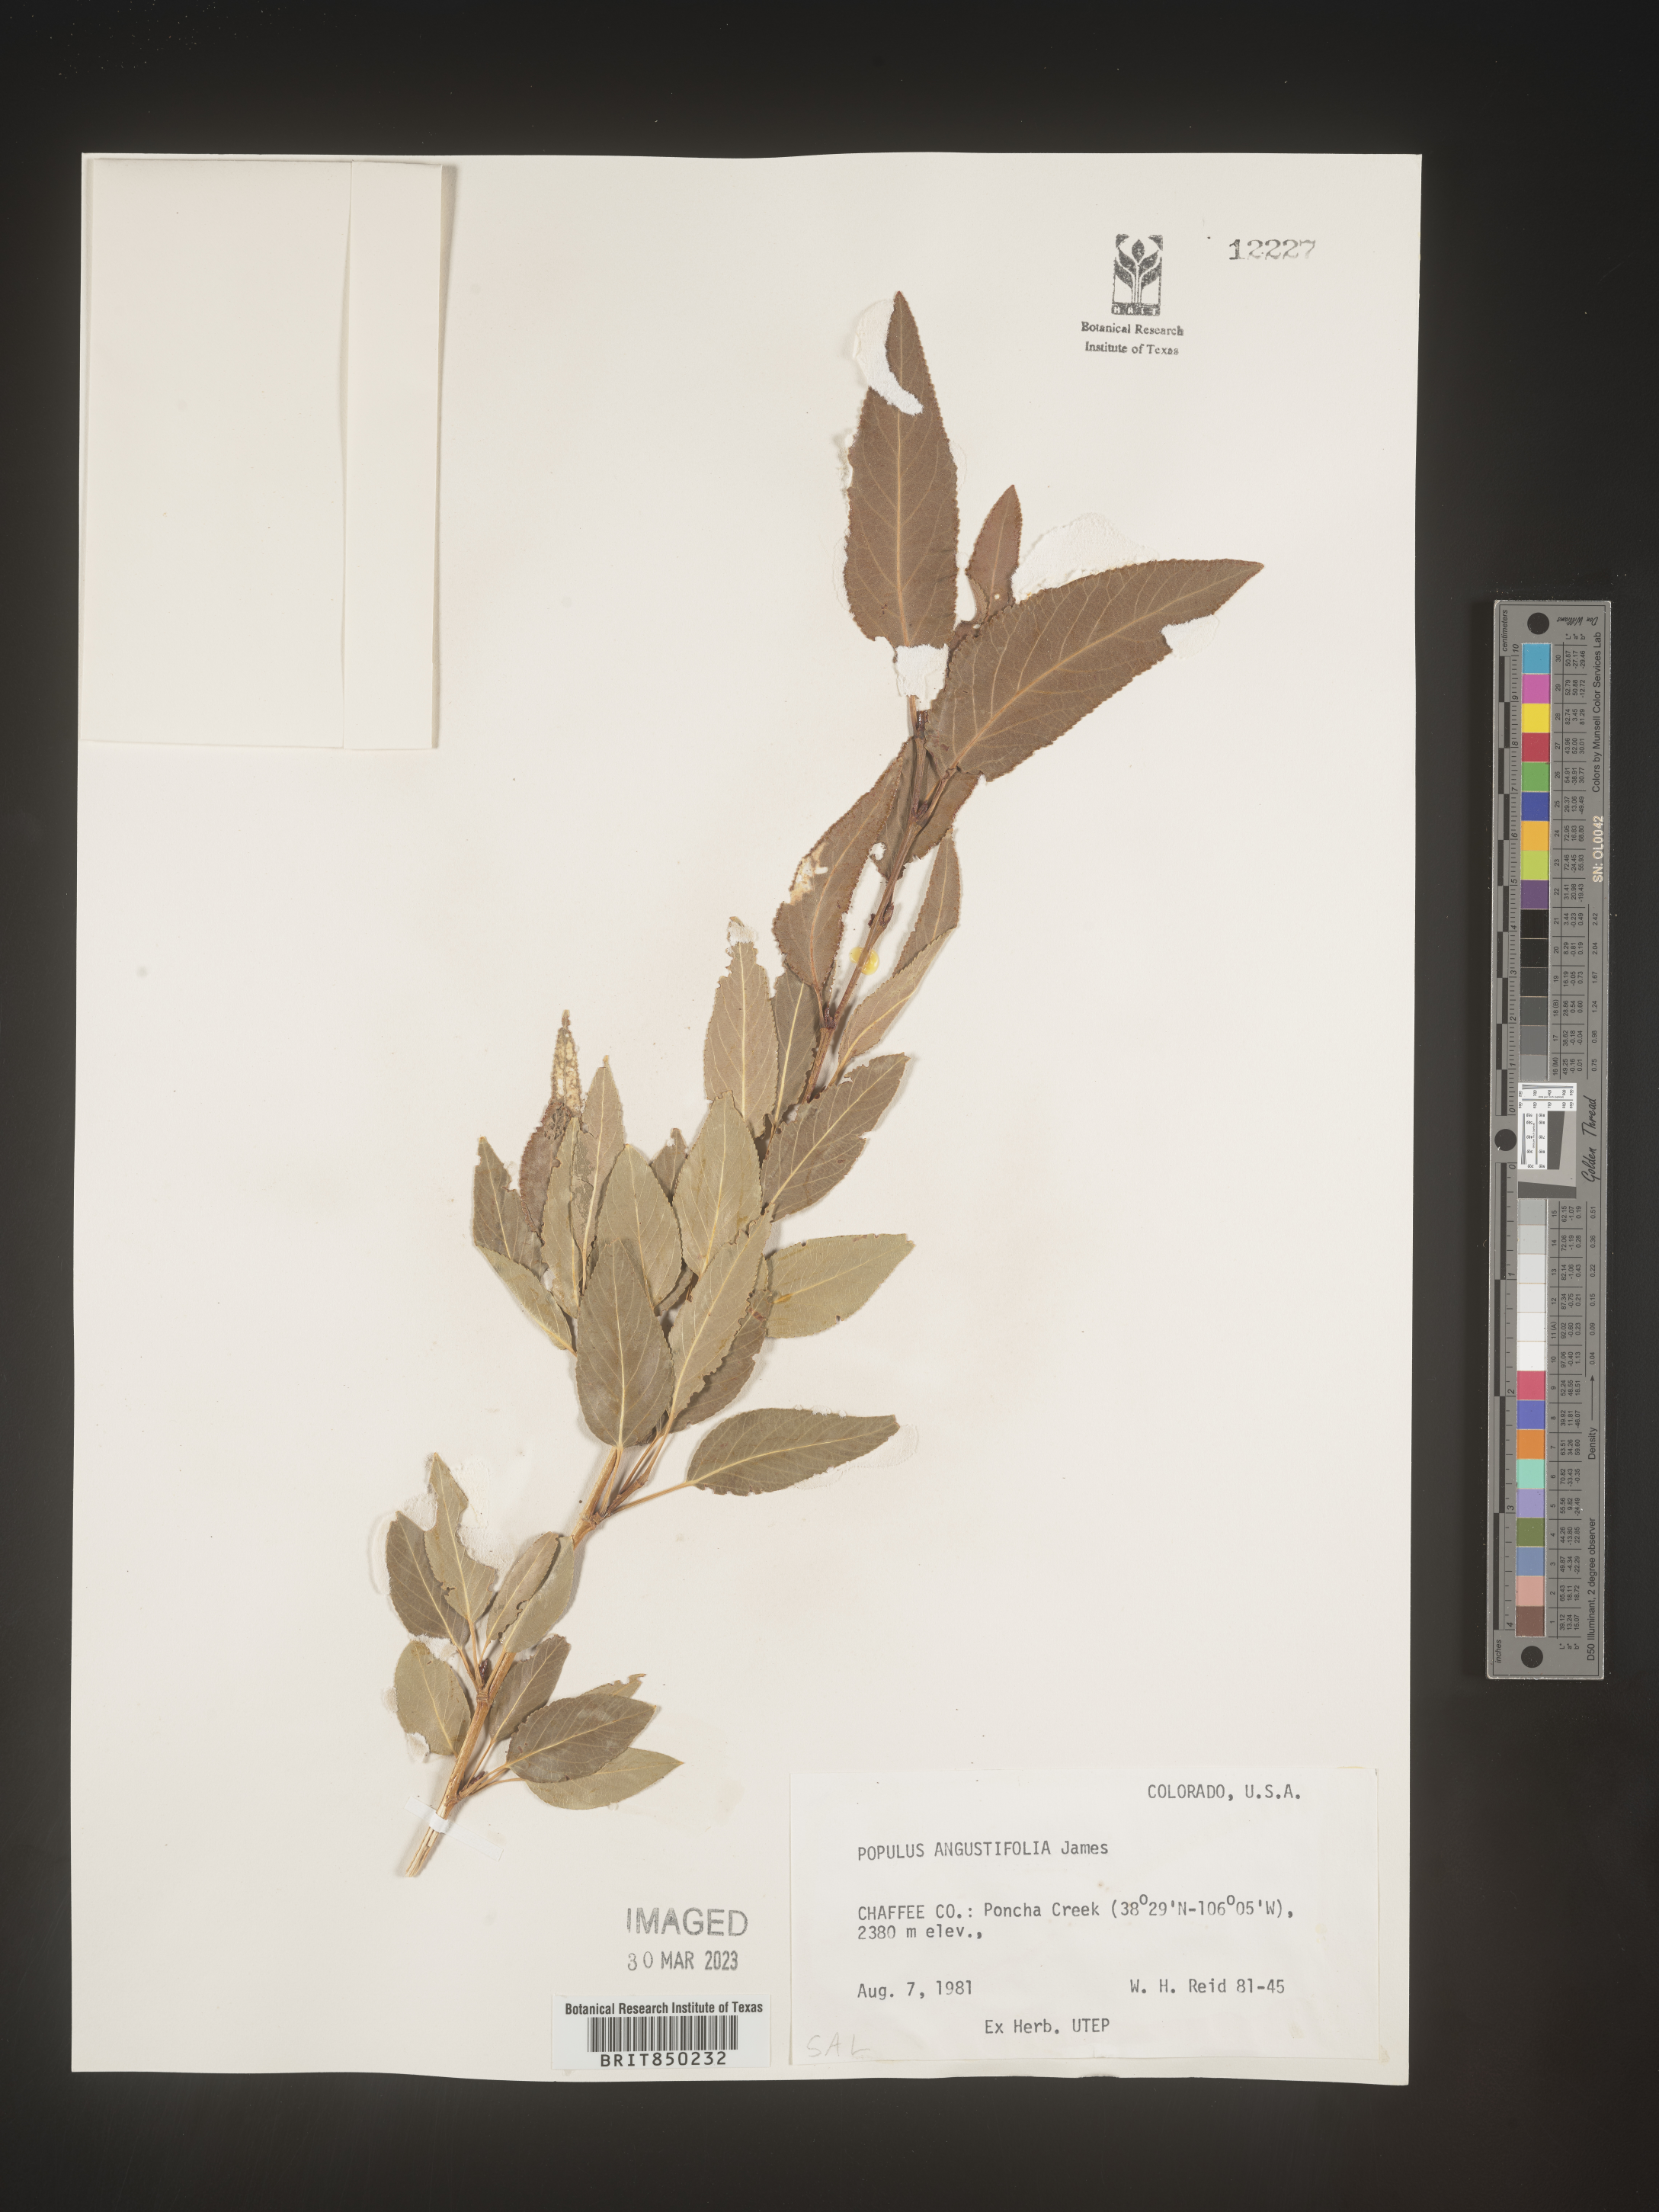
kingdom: Plantae
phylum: Tracheophyta
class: Magnoliopsida
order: Malpighiales
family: Salicaceae
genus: Populus
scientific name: Populus angustifolia
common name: Willow cottonwood
